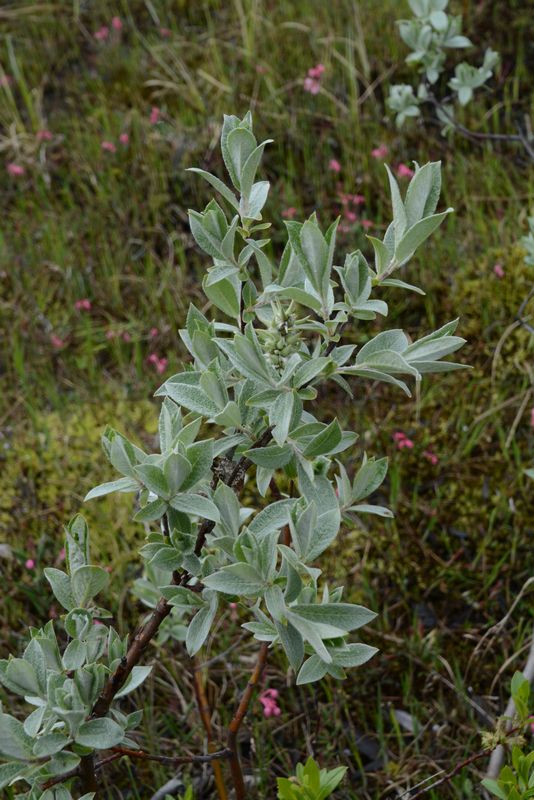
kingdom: Plantae
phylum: Tracheophyta
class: Magnoliopsida
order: Malpighiales
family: Salicaceae
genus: Salix
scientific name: Salix lapponum
